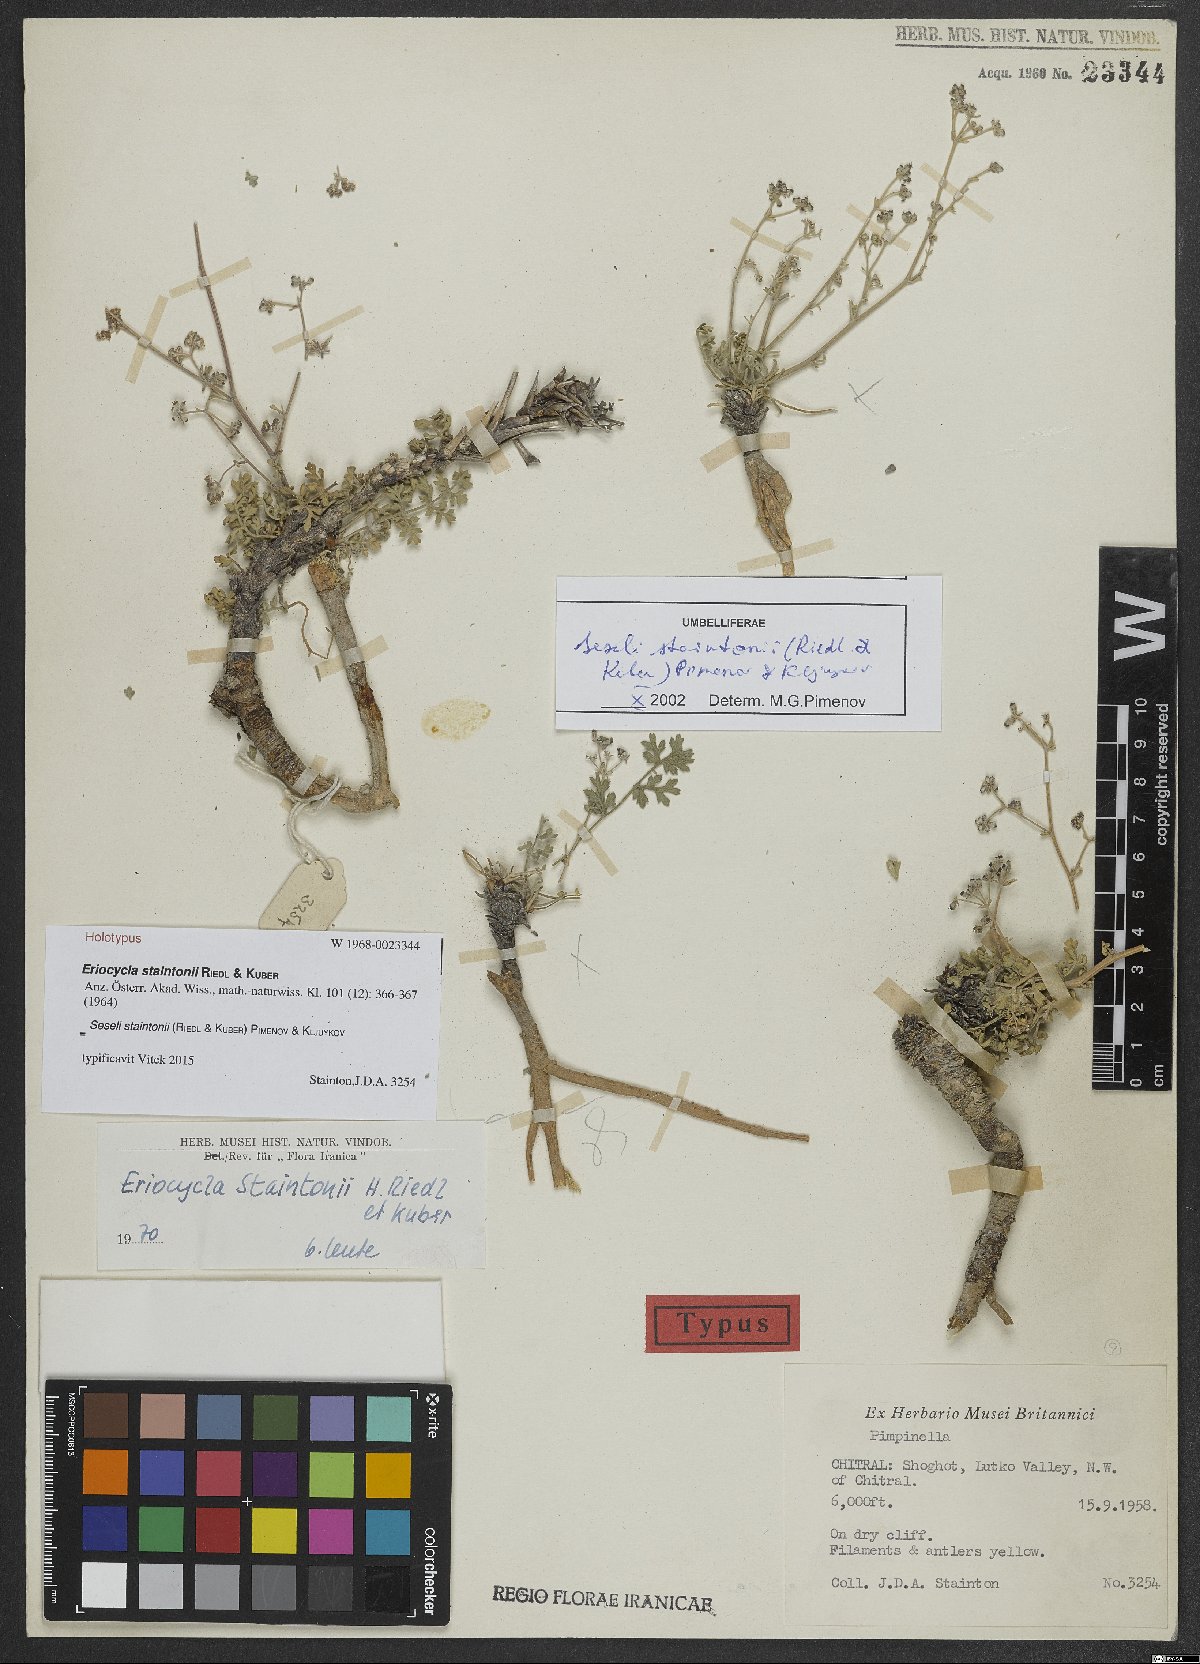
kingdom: Plantae
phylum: Tracheophyta
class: Magnoliopsida
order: Apiales
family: Apiaceae
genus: Seseli
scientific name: Seseli staintonii
